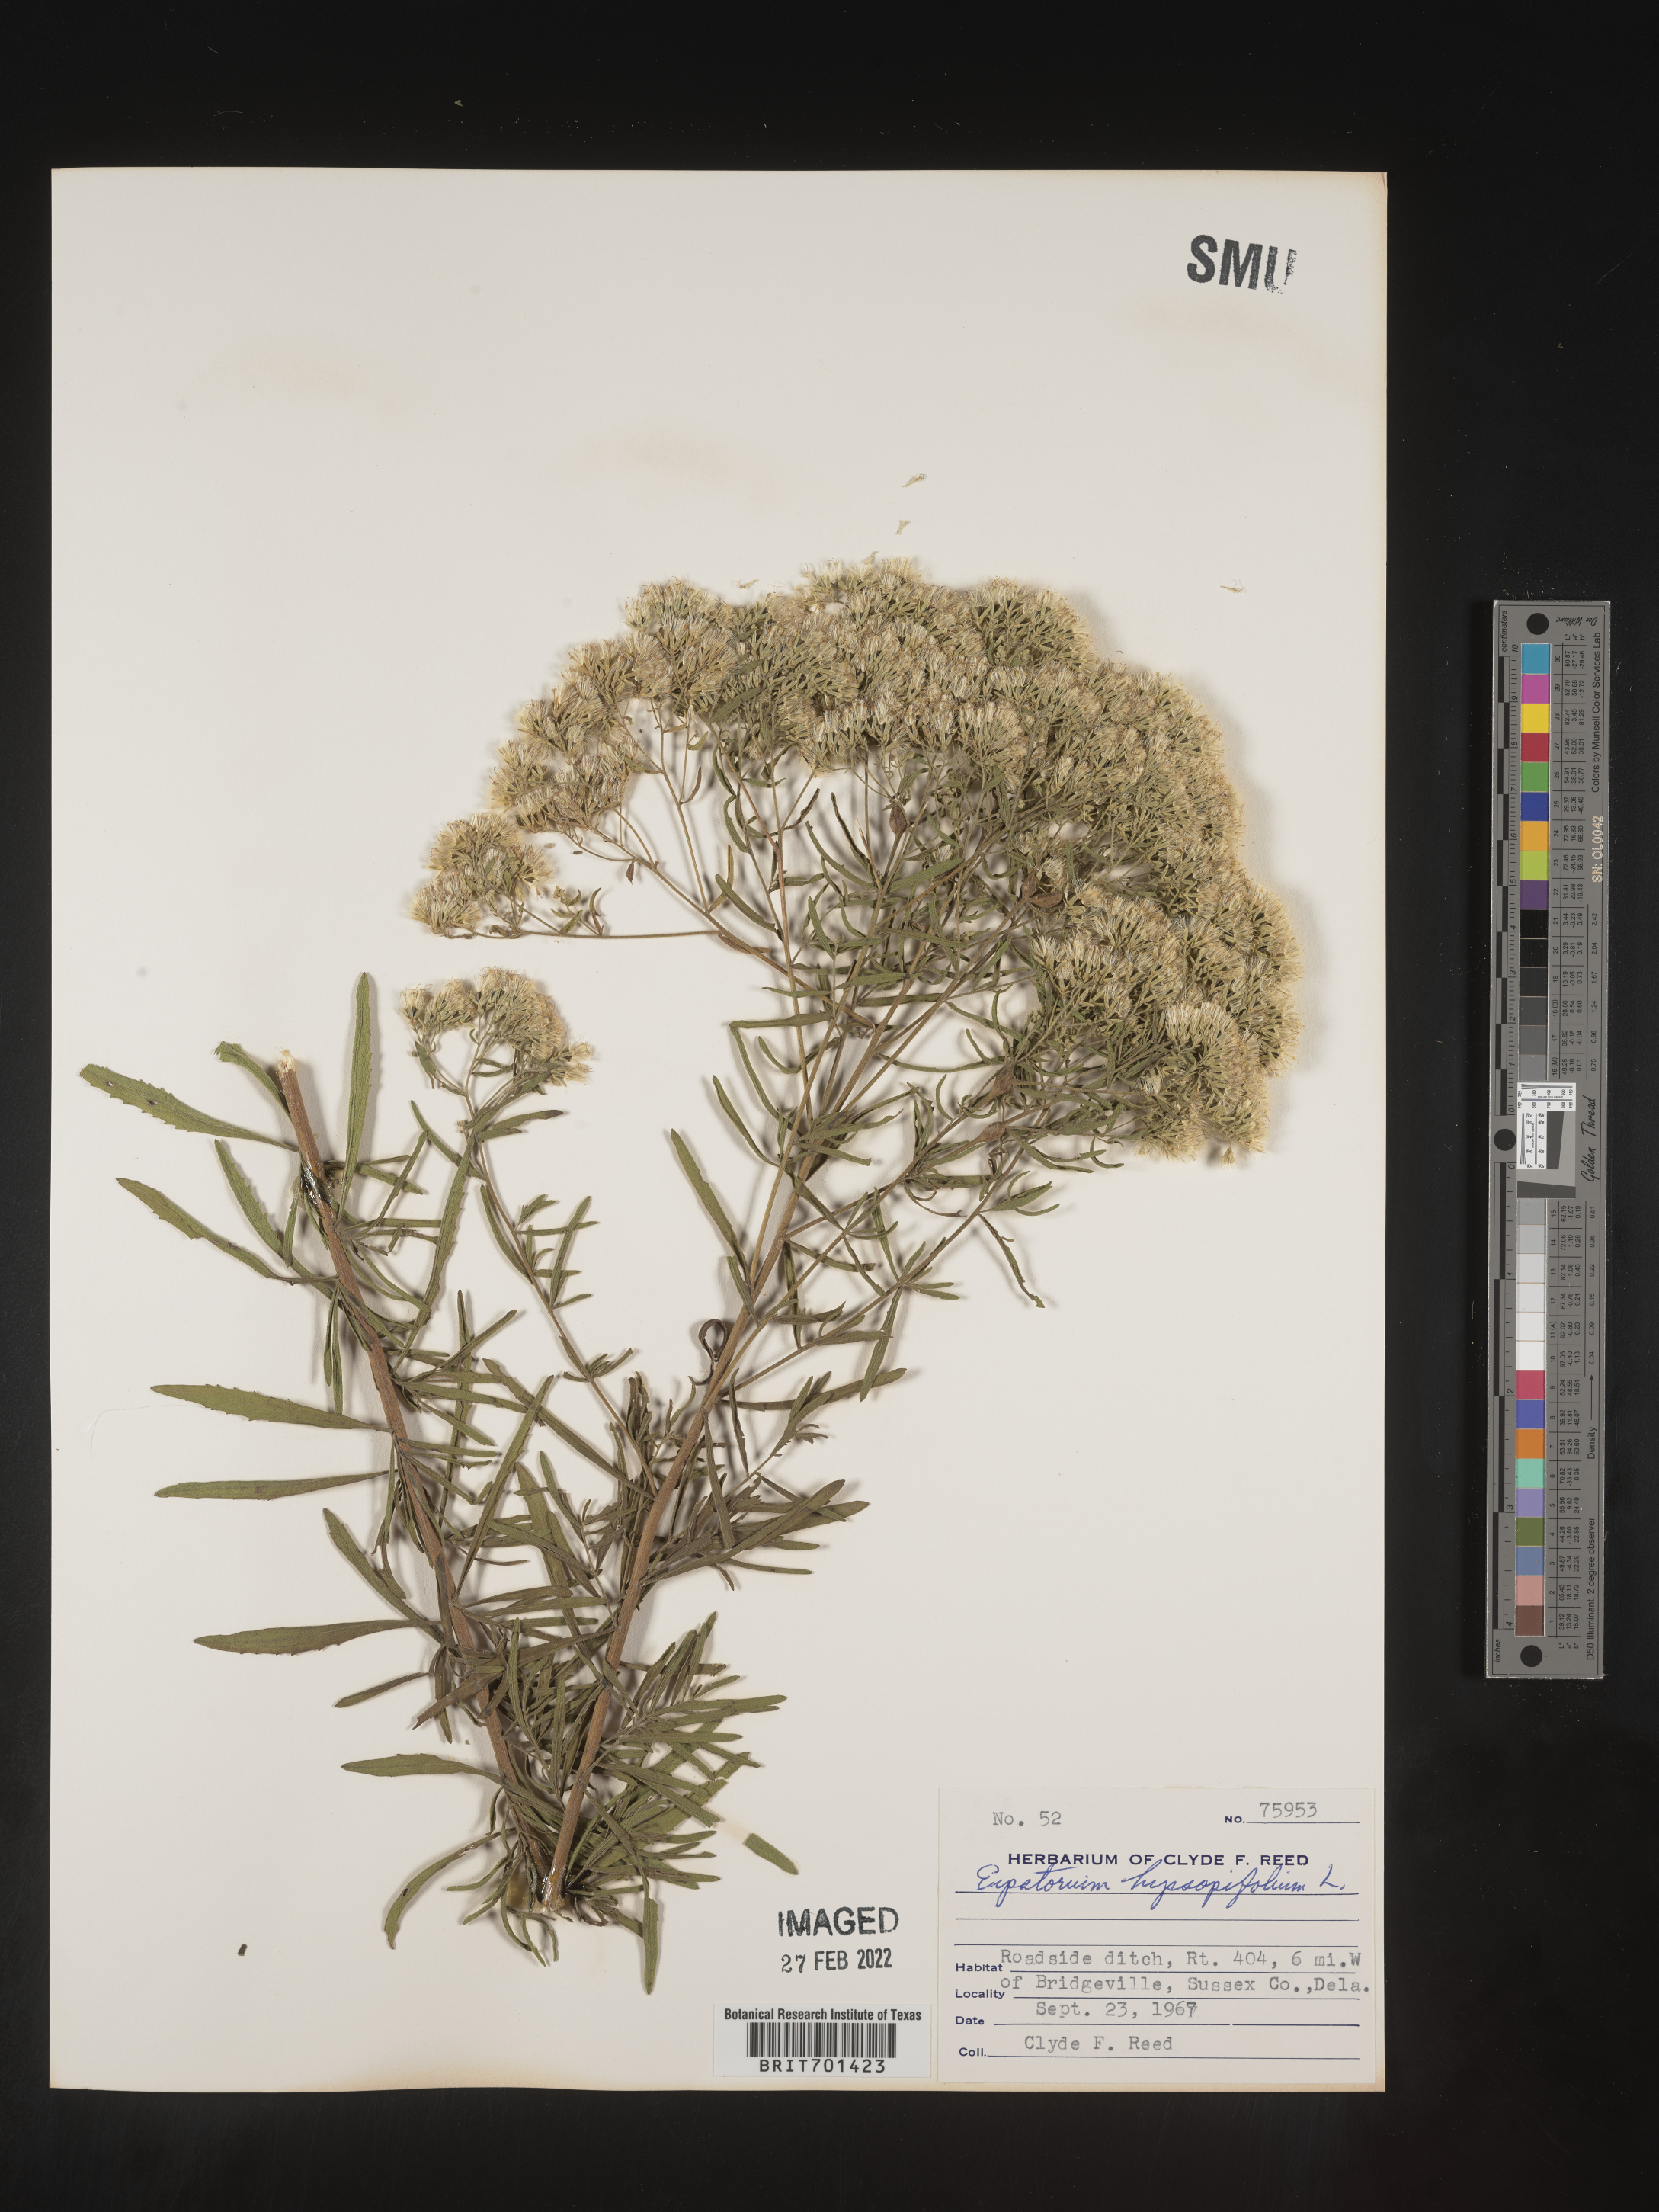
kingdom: Plantae
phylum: Tracheophyta
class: Magnoliopsida
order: Asterales
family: Asteraceae
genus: Eupatorium
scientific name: Eupatorium hyssopifolium
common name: Hyssop-leaf thoroughwort
